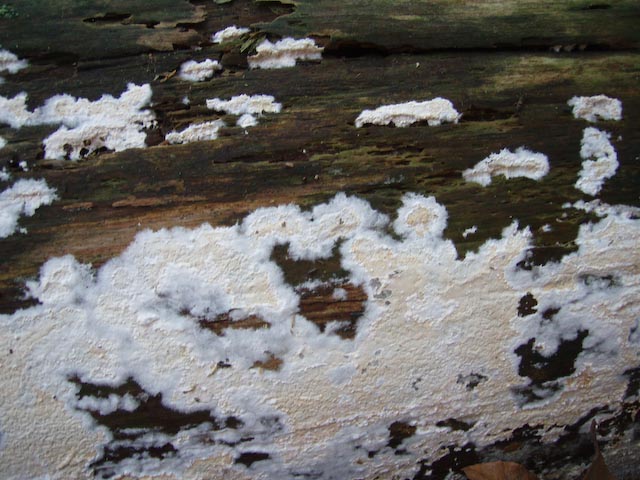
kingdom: Fungi
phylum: Basidiomycota
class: Agaricomycetes
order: Atheliales
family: Atheliaceae
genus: Leptosporomyces
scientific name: Leptosporomyces fuscostratus
